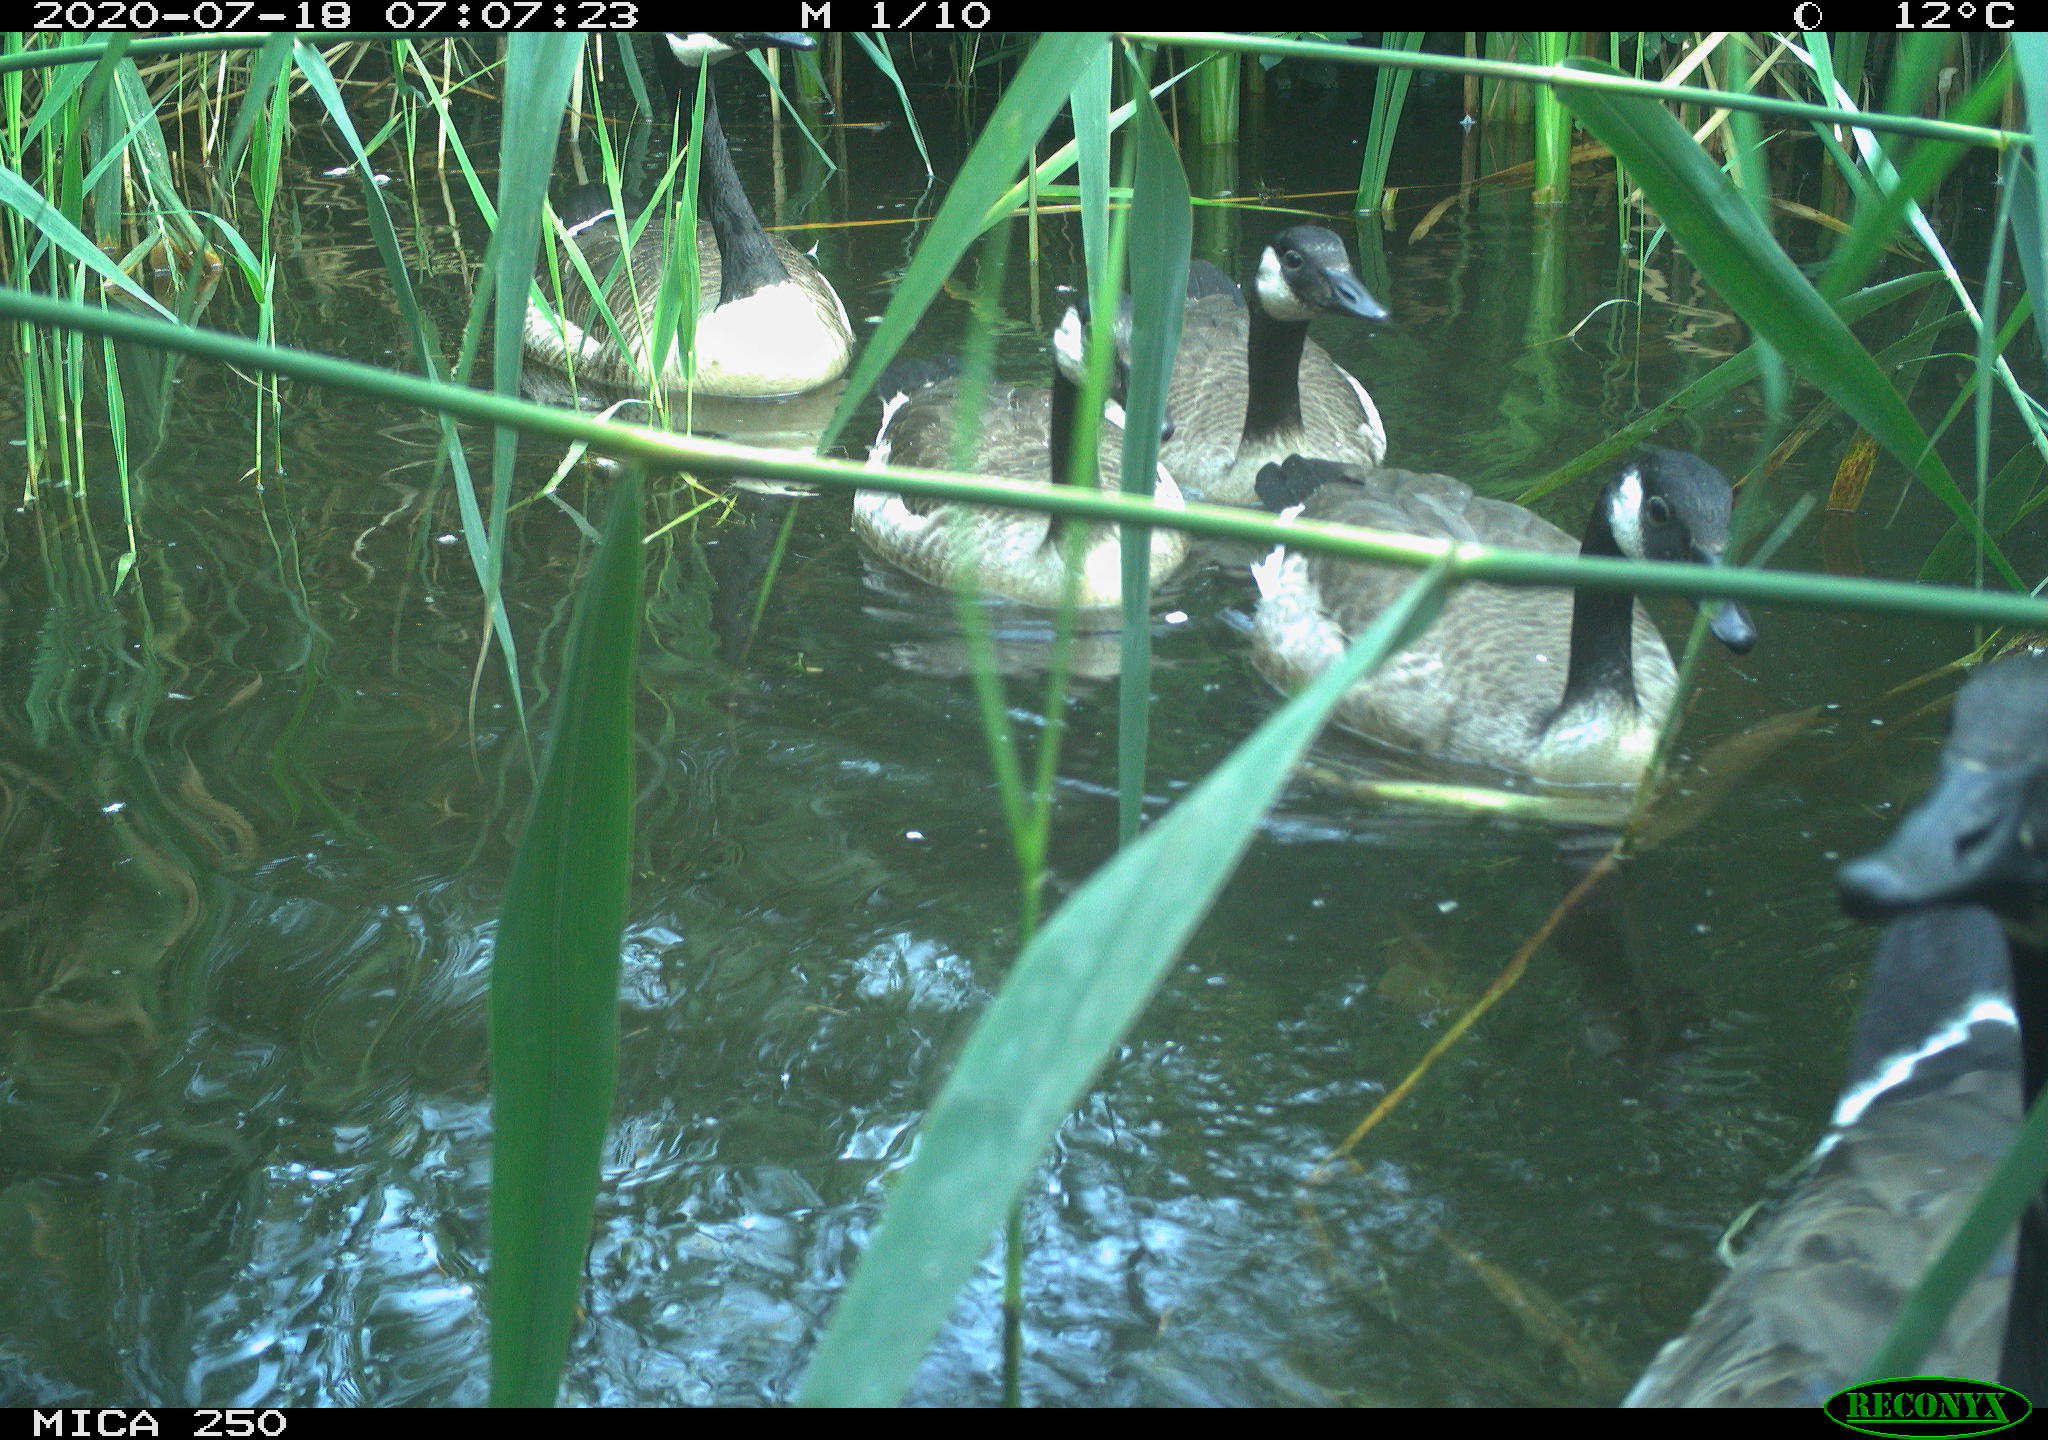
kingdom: Animalia
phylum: Chordata
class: Aves
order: Anseriformes
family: Anatidae
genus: Branta
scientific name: Branta canadensis
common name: Canada goose
